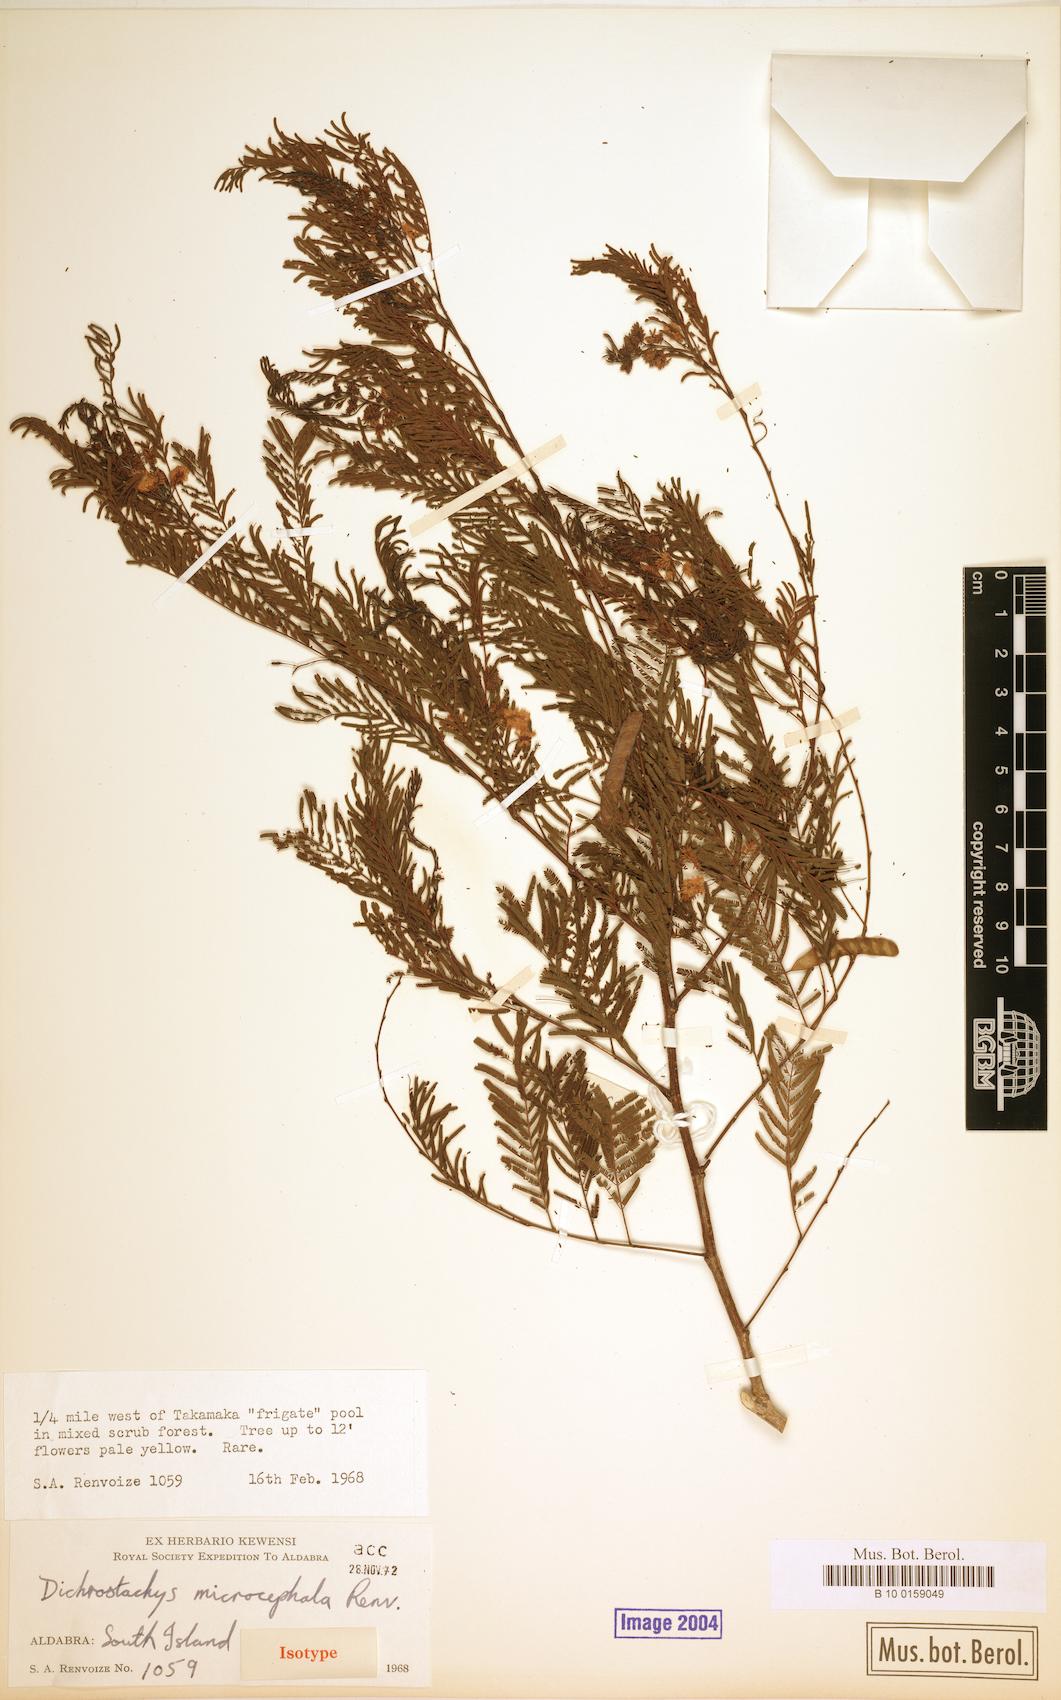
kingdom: Plantae
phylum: Tracheophyta
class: Magnoliopsida
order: Fabales
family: Fabaceae
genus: Gagnebina
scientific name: Gagnebina microcephala
